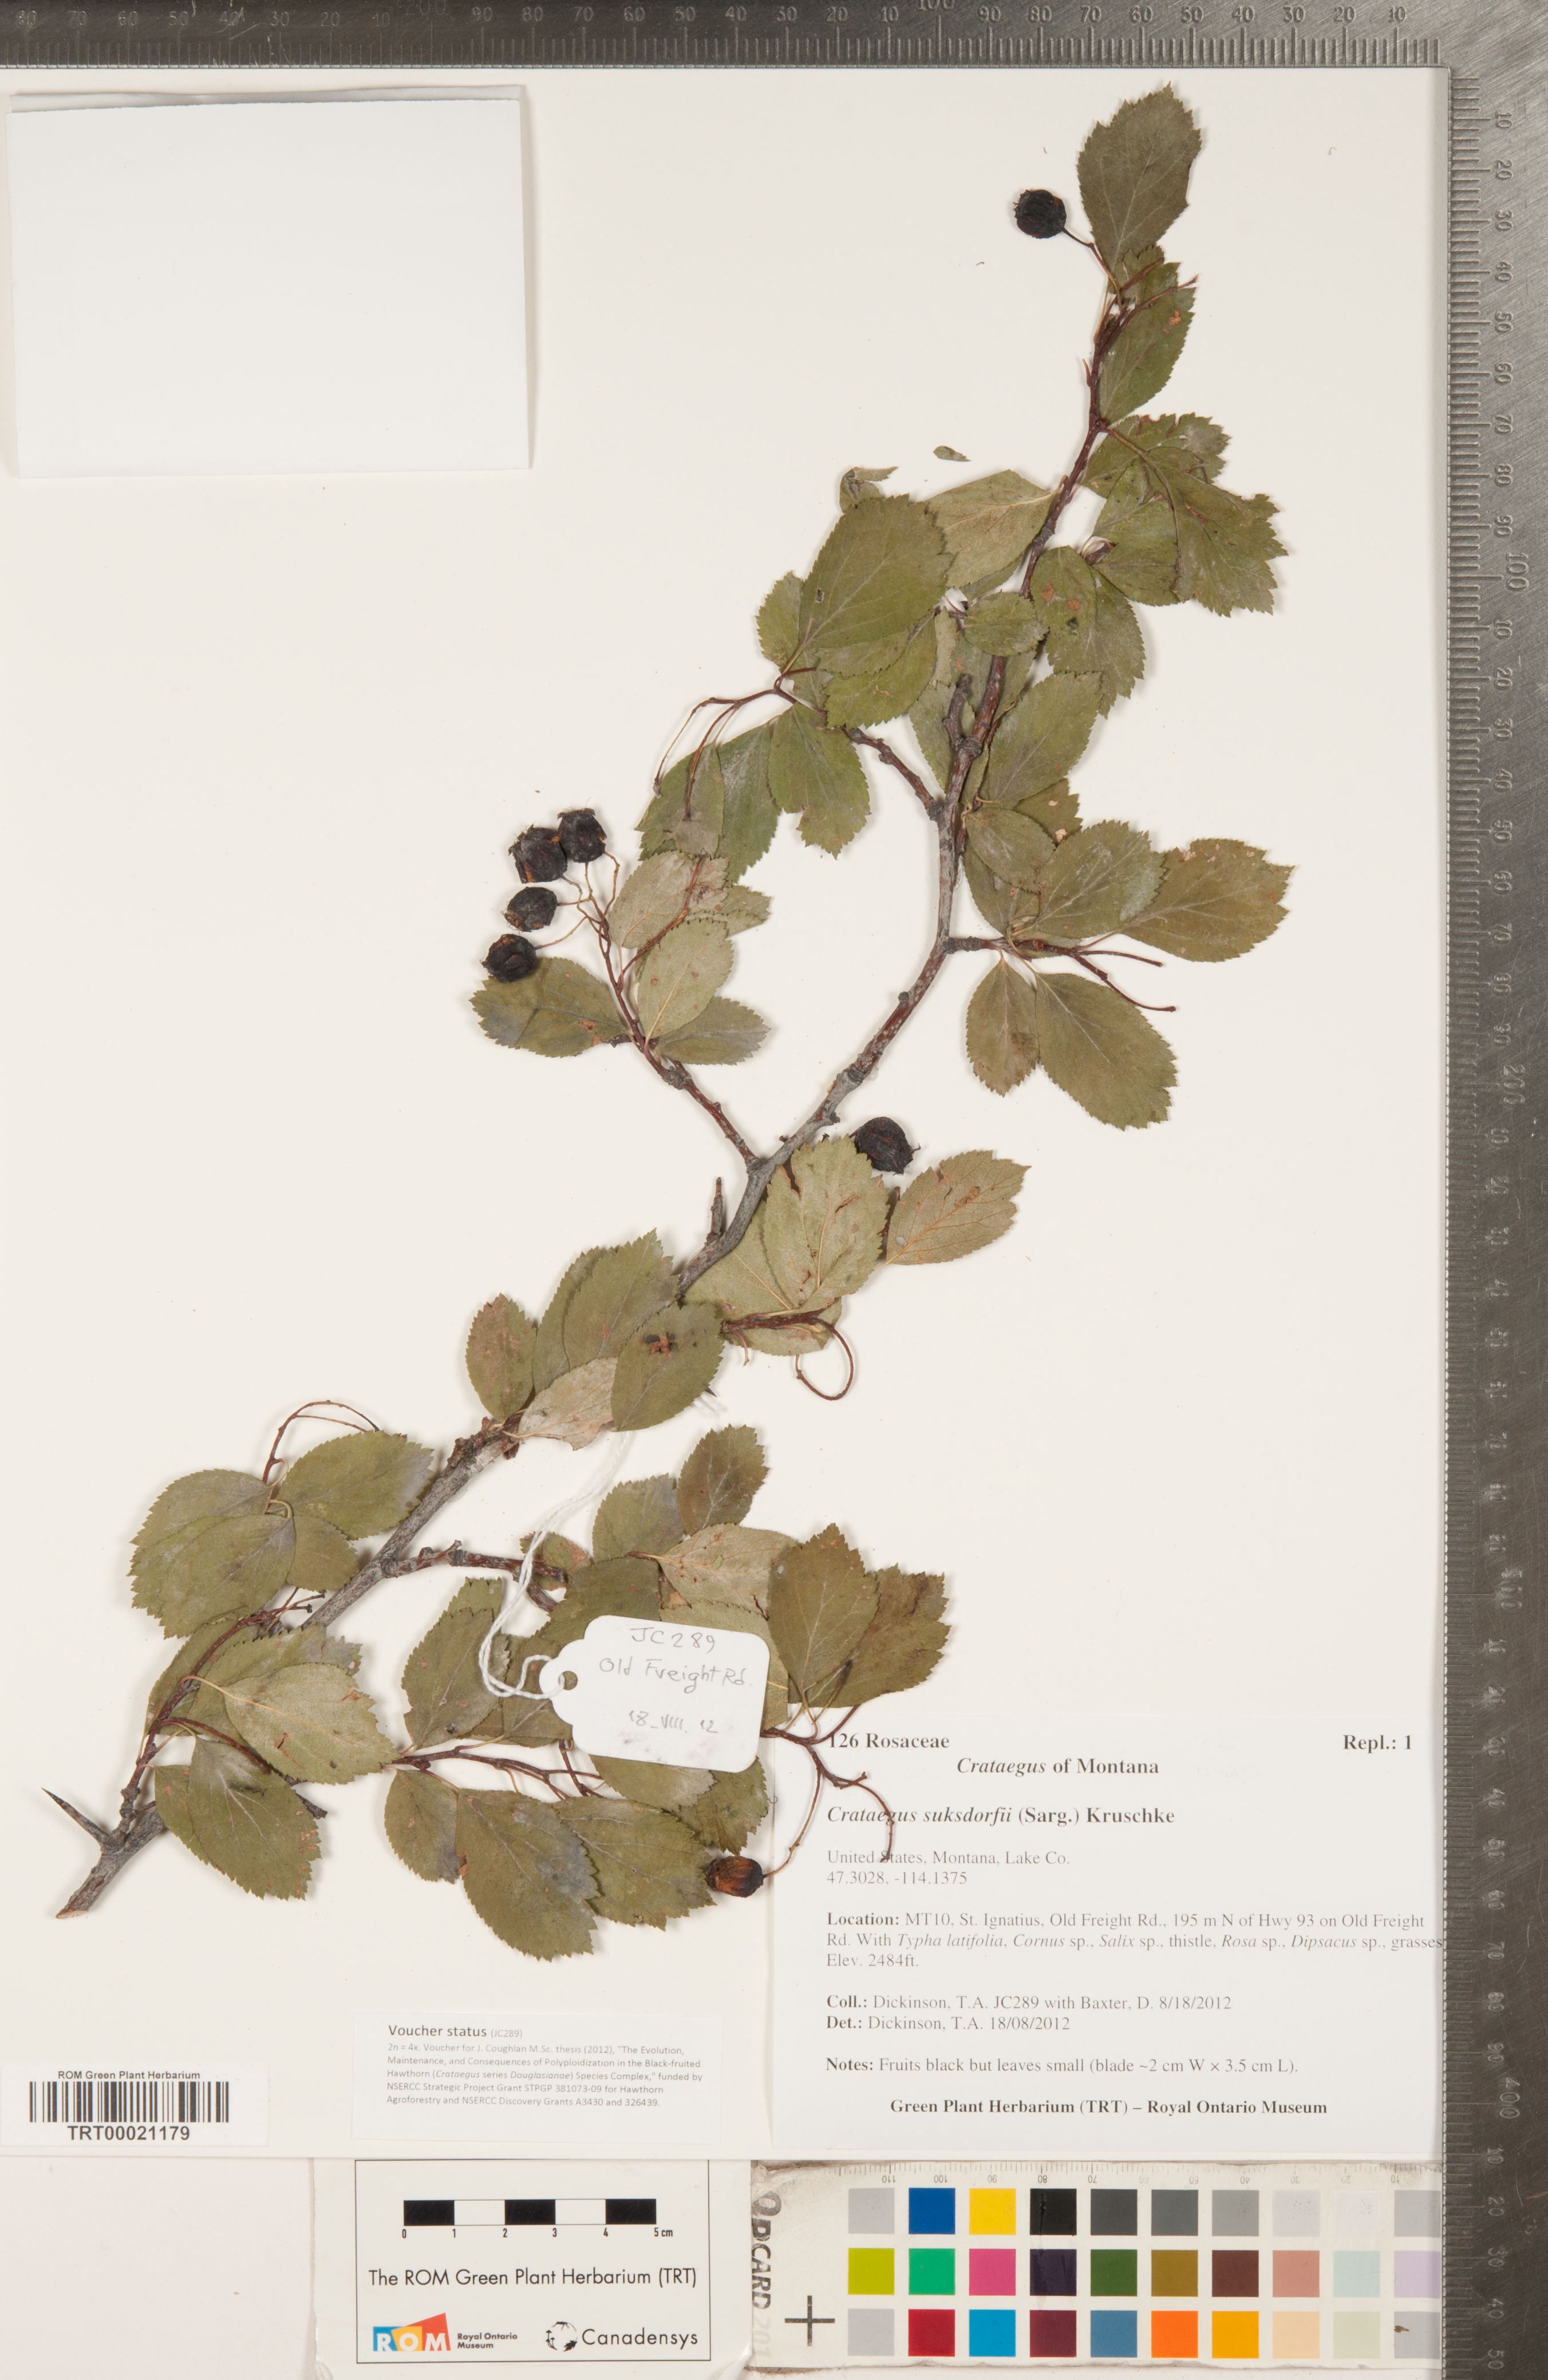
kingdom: Plantae
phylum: Tracheophyta
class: Magnoliopsida
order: Rosales
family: Rosaceae
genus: Crataegus
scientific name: Crataegus gaylussacia
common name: Huckleberry hawthorn
